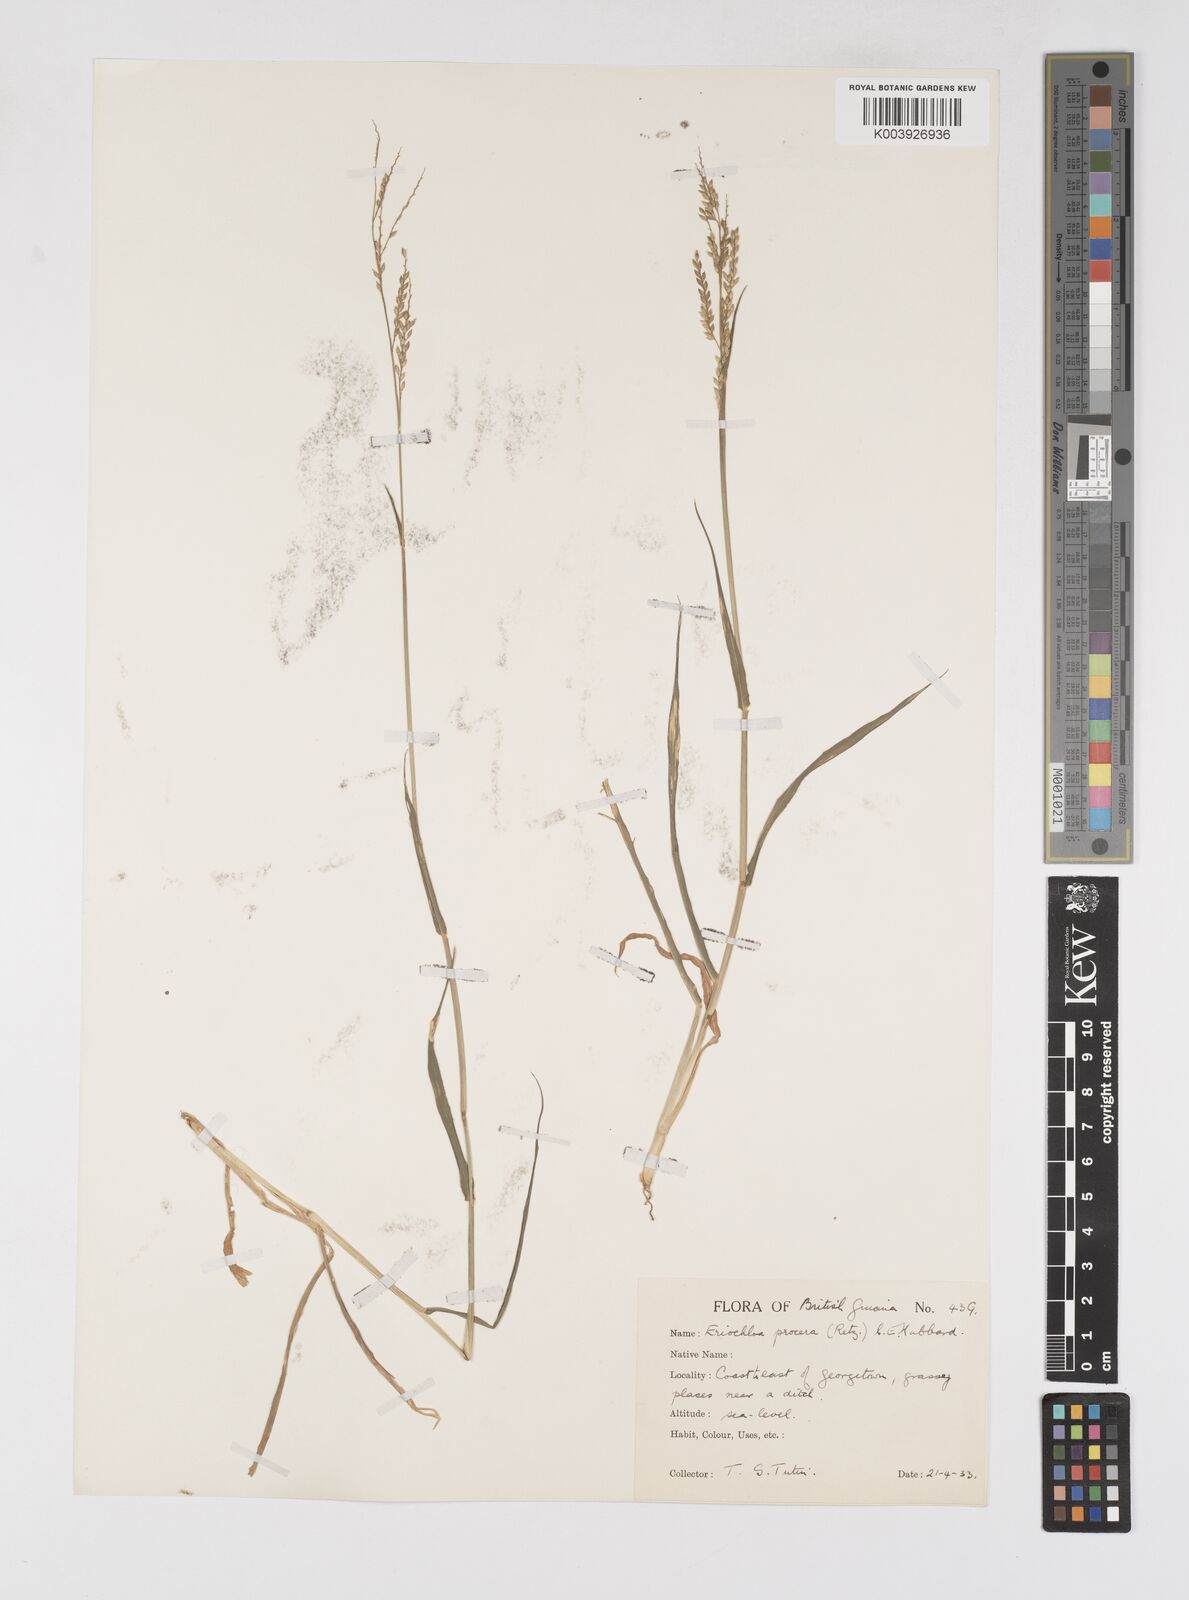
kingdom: Plantae
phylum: Tracheophyta
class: Liliopsida
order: Poales
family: Poaceae
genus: Eriochloa
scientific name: Eriochloa procera
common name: Spring grass
